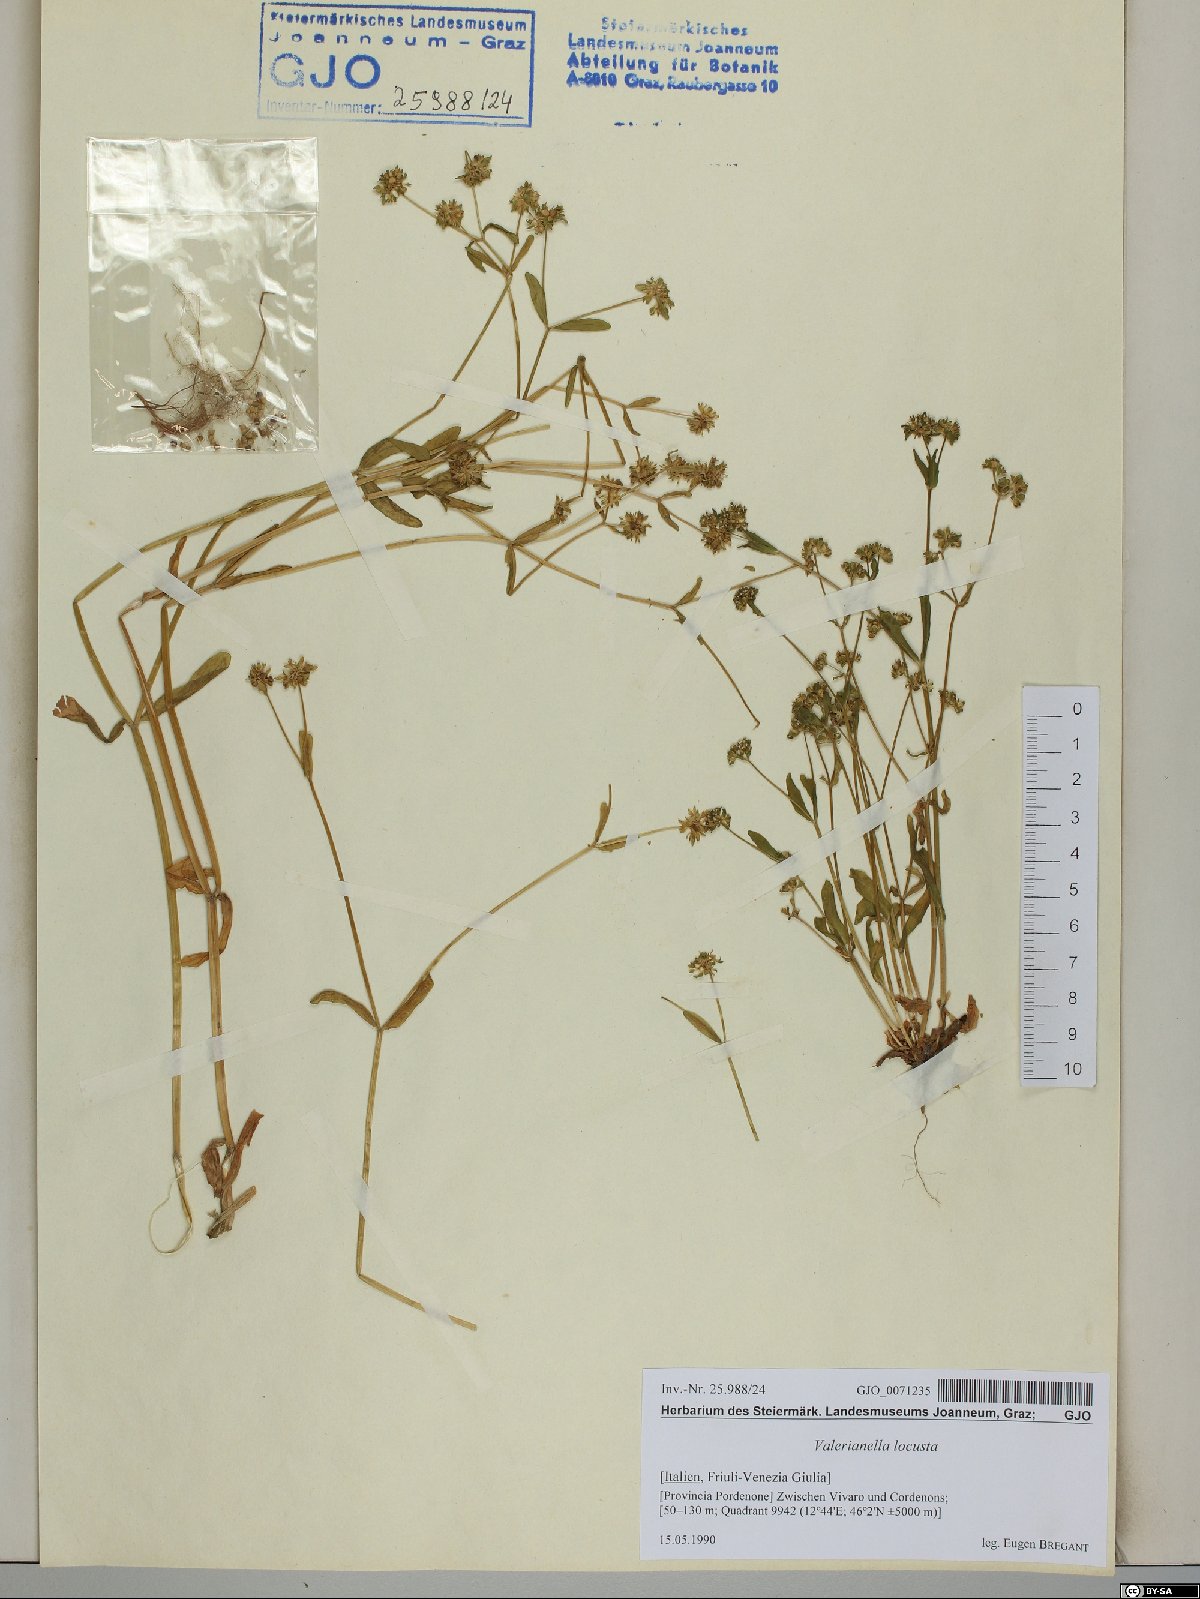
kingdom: Plantae
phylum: Tracheophyta
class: Magnoliopsida
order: Dipsacales
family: Caprifoliaceae
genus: Valerianella
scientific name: Valerianella locusta
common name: Common cornsalad
